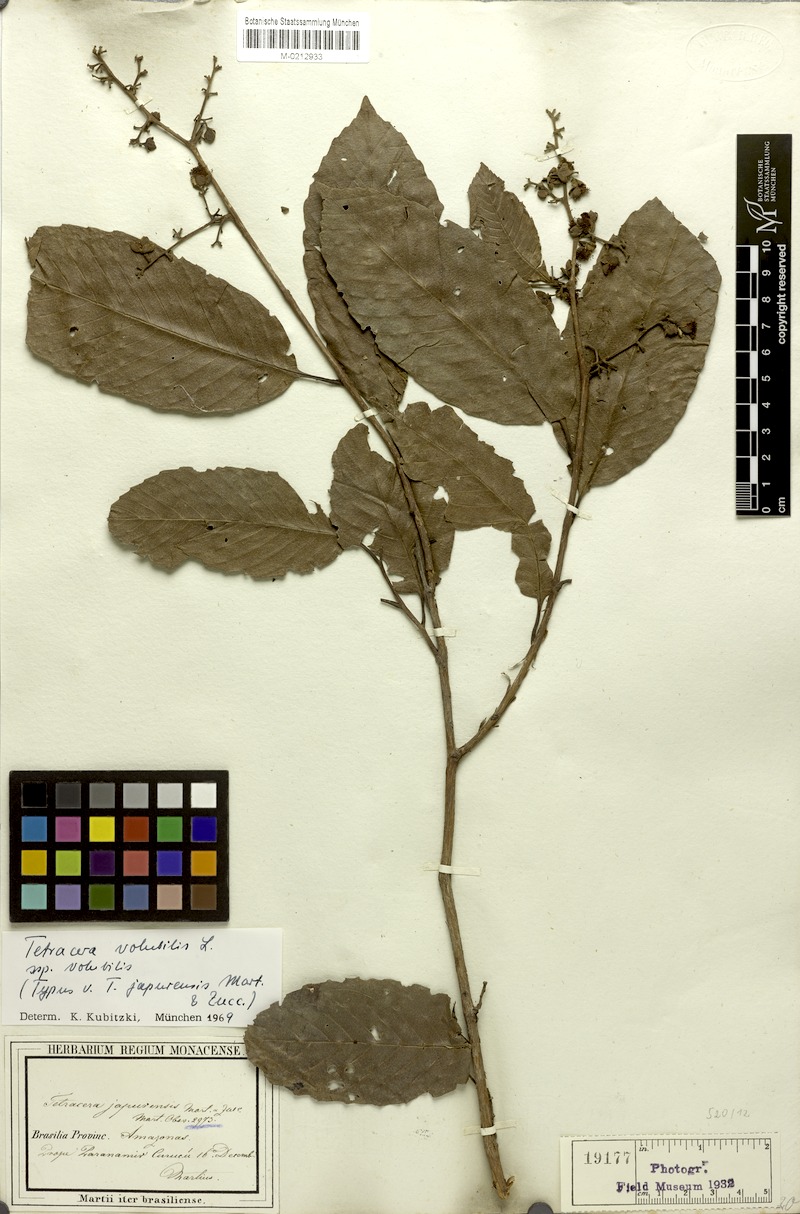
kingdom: Plantae
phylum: Tracheophyta
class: Magnoliopsida
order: Dilleniales
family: Dilleniaceae
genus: Tetracera
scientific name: Tetracera volubilis
